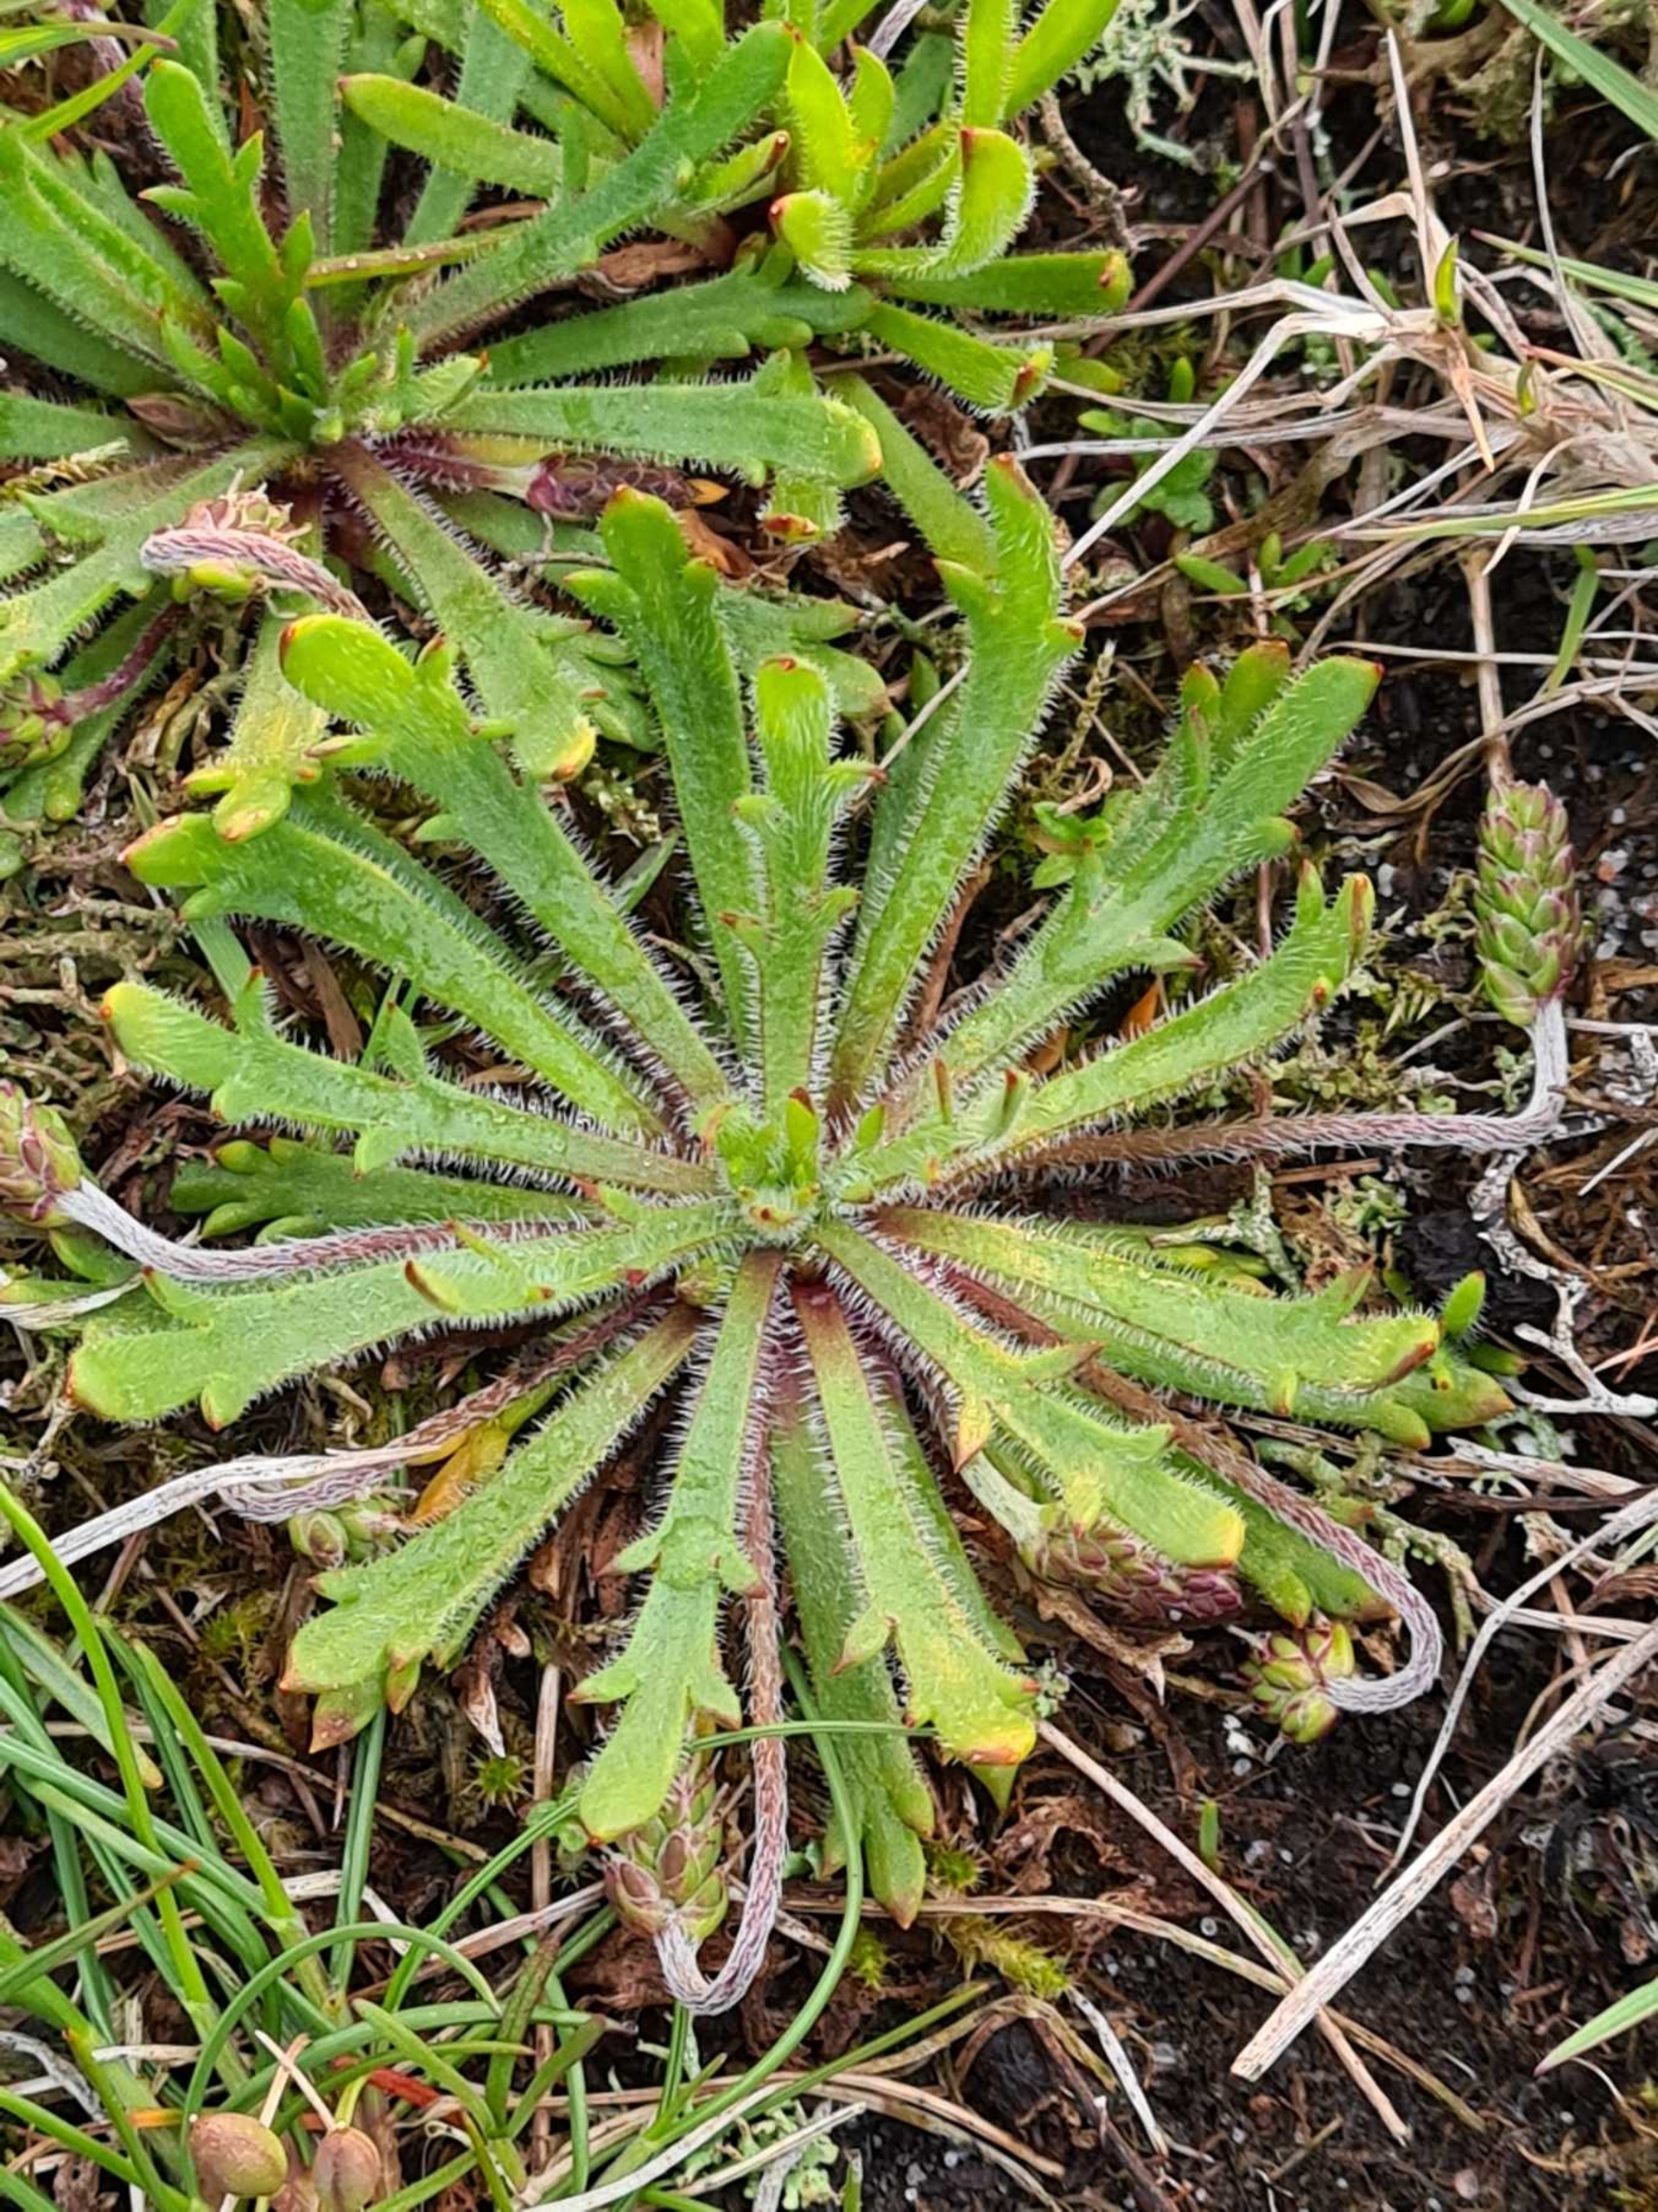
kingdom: Plantae
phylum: Tracheophyta
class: Magnoliopsida
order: Lamiales
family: Plantaginaceae
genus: Plantago
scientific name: Plantago coronopus
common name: Fliget vejbred
